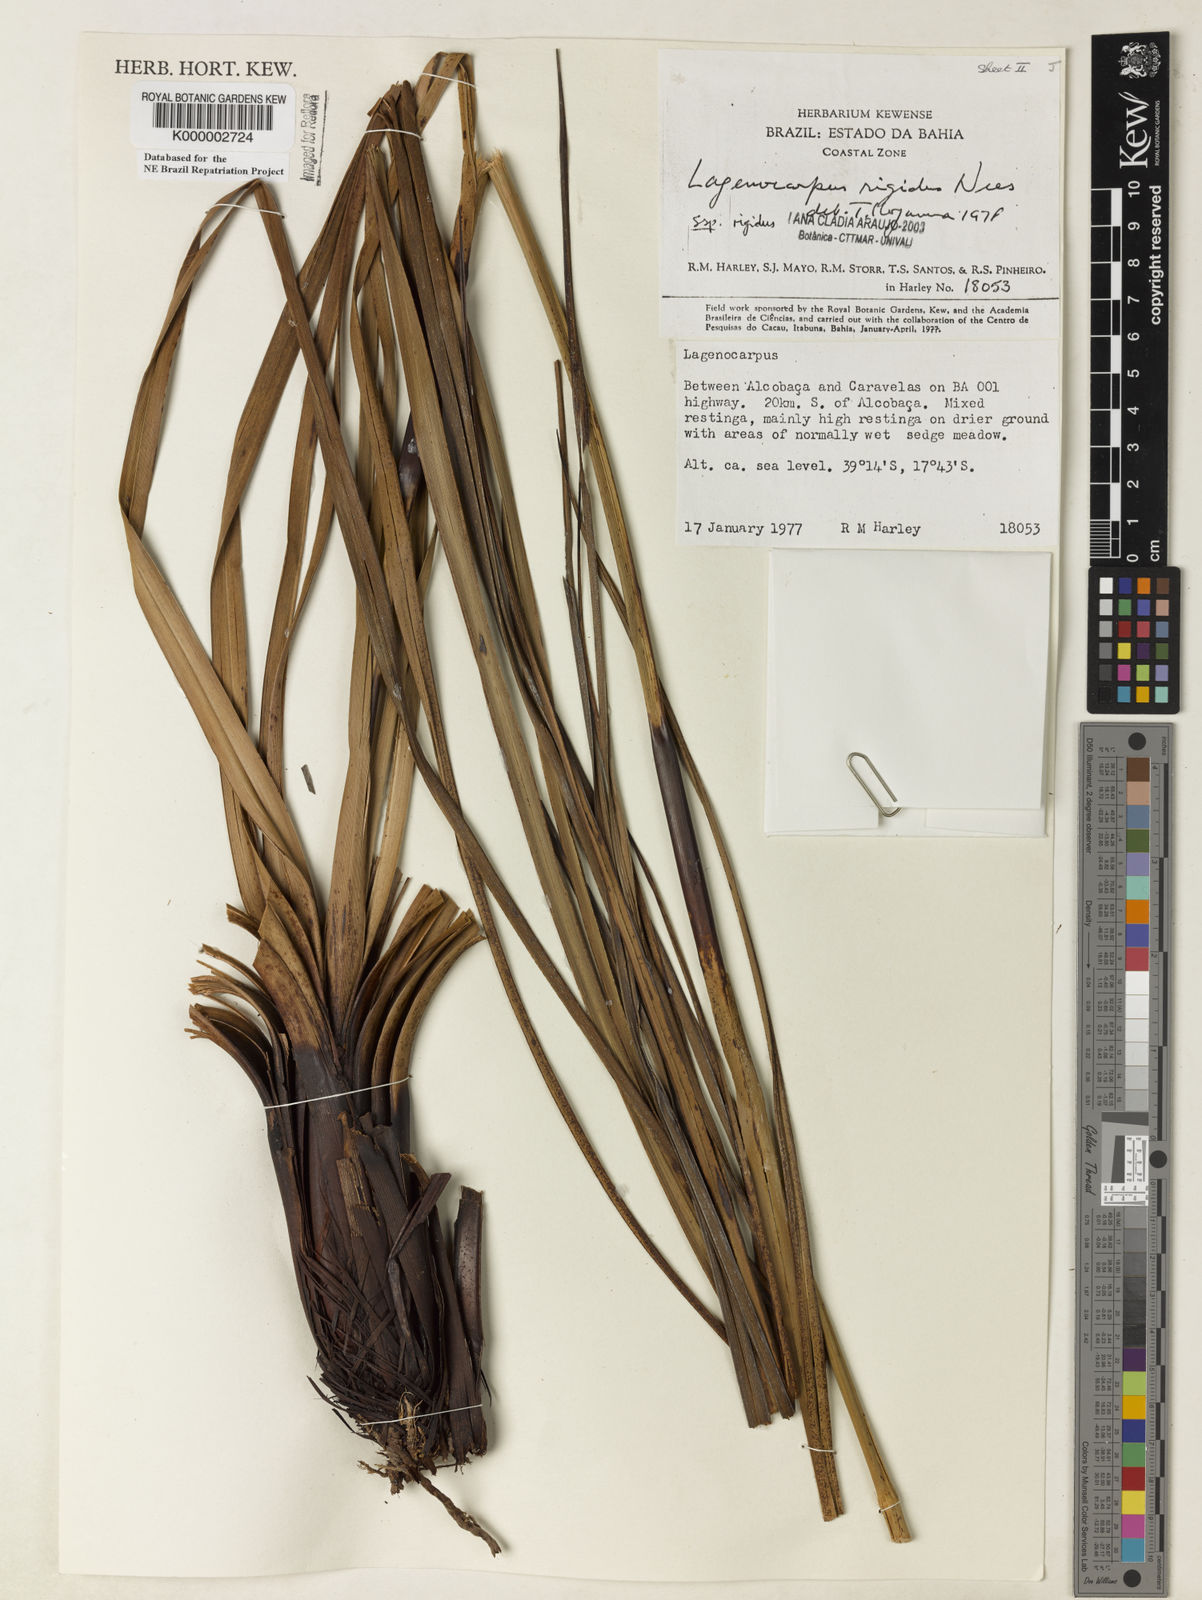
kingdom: Plantae
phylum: Tracheophyta
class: Liliopsida
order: Poales
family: Cyperaceae
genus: Lagenocarpus
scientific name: Lagenocarpus rigidus
